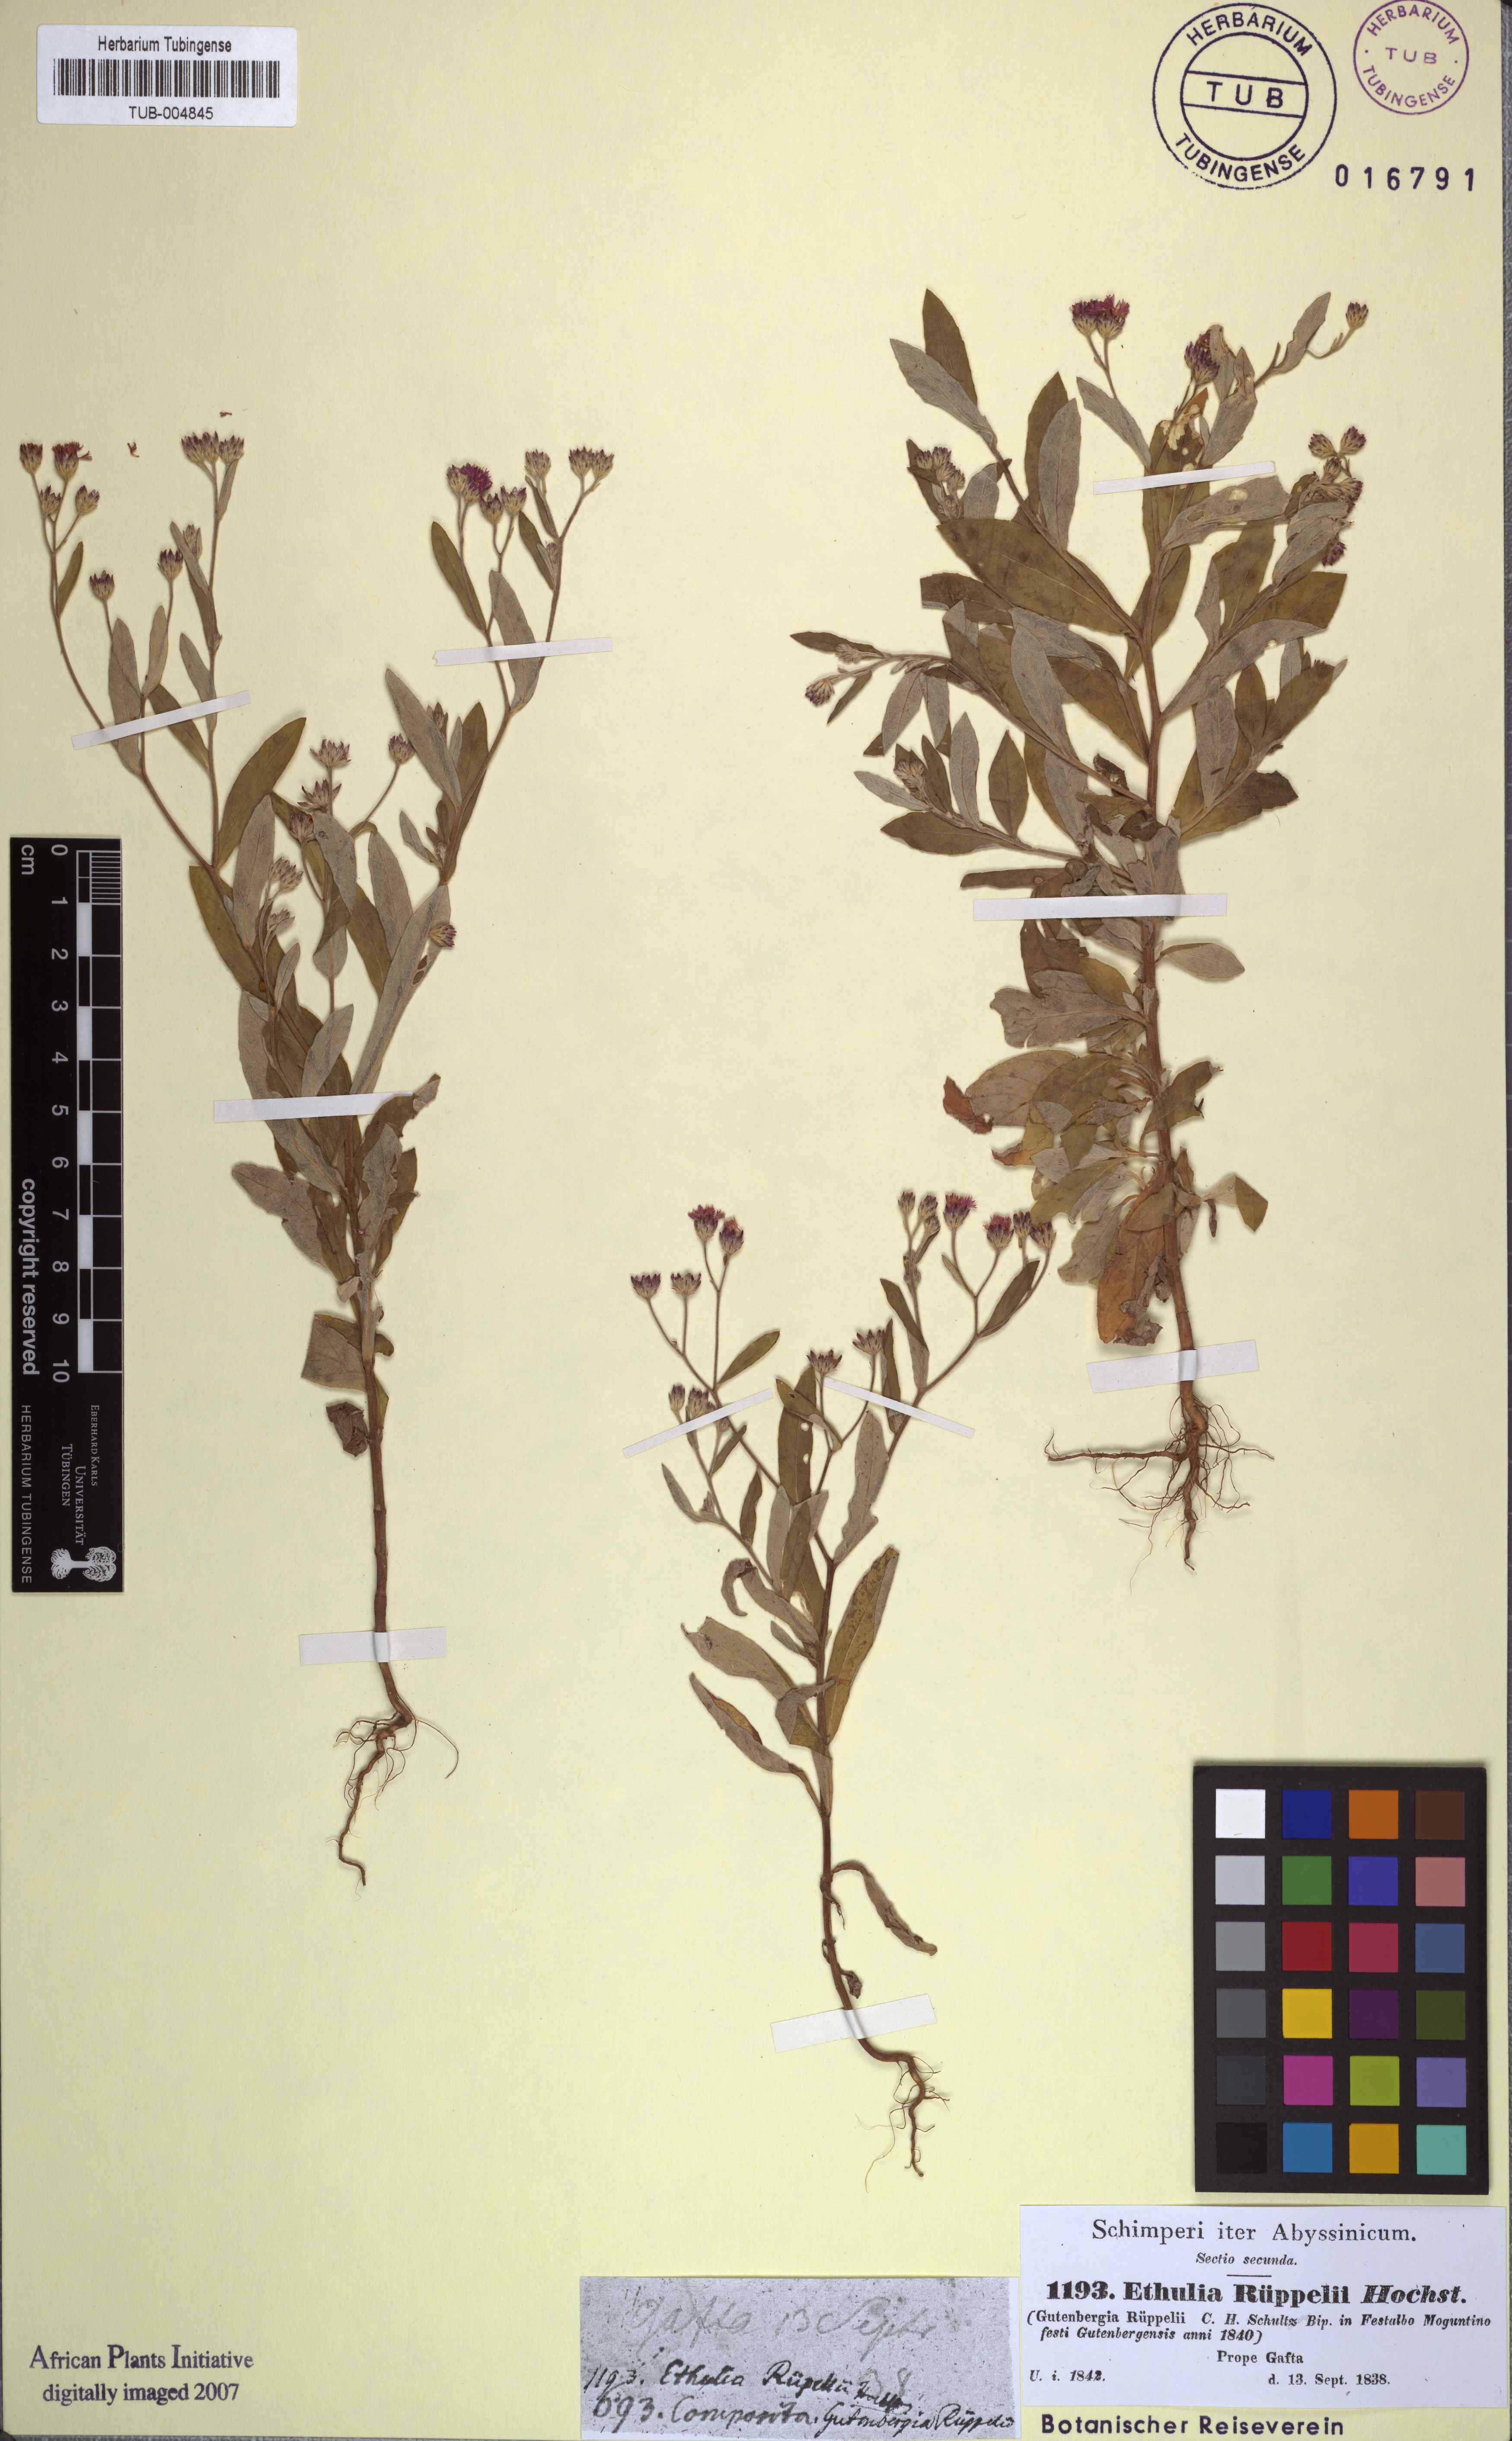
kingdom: Plantae
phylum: Tracheophyta
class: Magnoliopsida
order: Asterales
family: Asteraceae
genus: Gutenbergia
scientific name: Gutenbergia rueppellii
